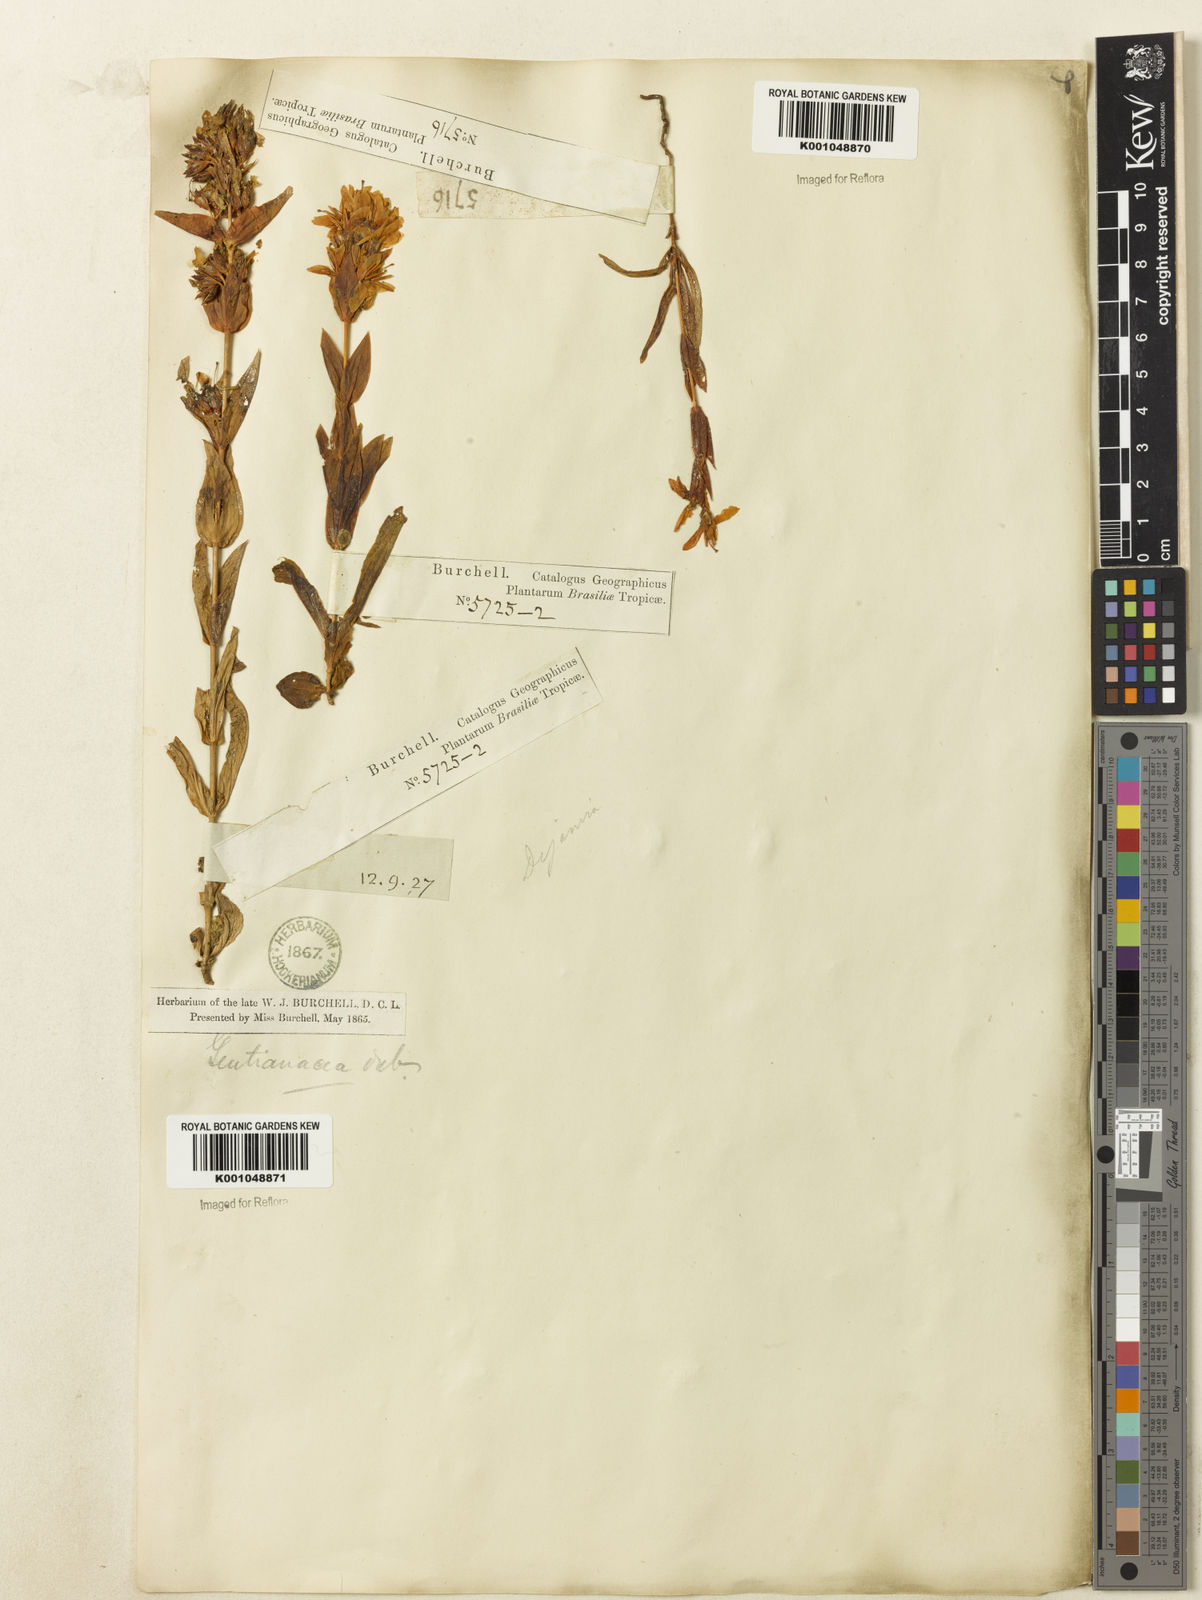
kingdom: Plantae
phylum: Tracheophyta
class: Magnoliopsida
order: Gentianales
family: Gentianaceae
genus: Deianira
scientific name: Deianira chiquitana
